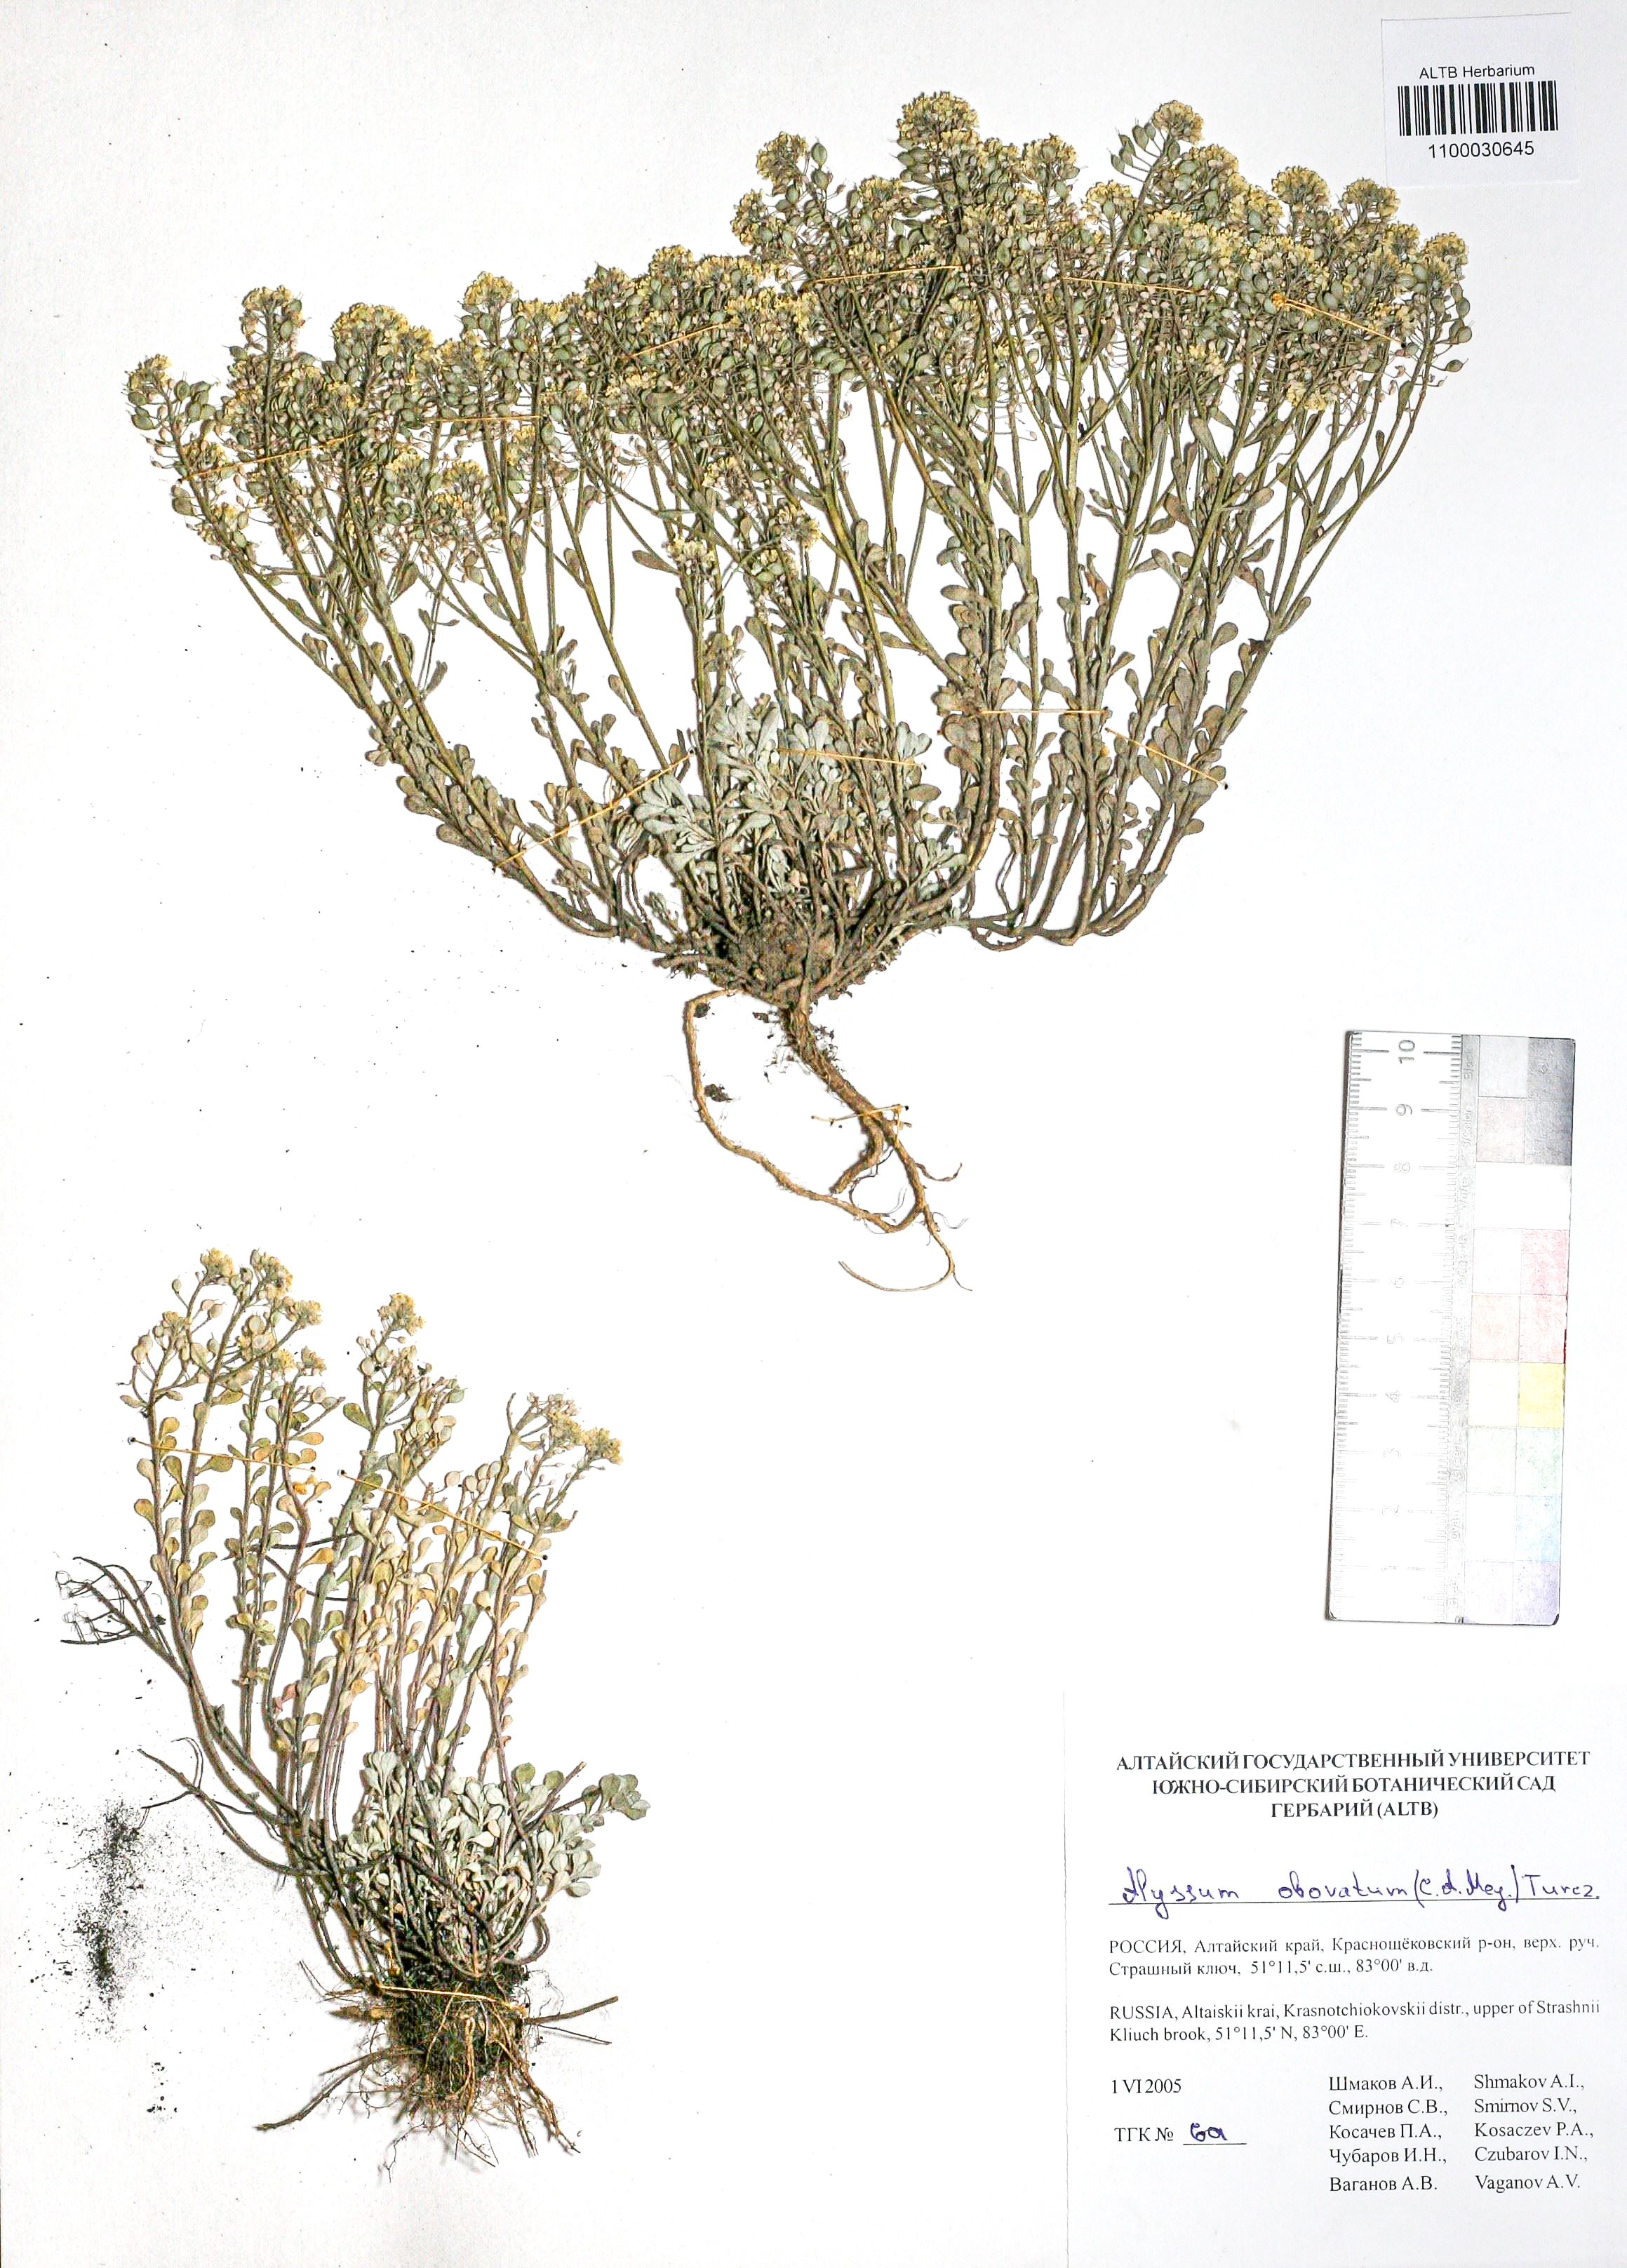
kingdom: Plantae
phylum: Tracheophyta
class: Magnoliopsida
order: Brassicales
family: Brassicaceae
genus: Odontarrhena
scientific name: Odontarrhena obovata
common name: American alyssum
